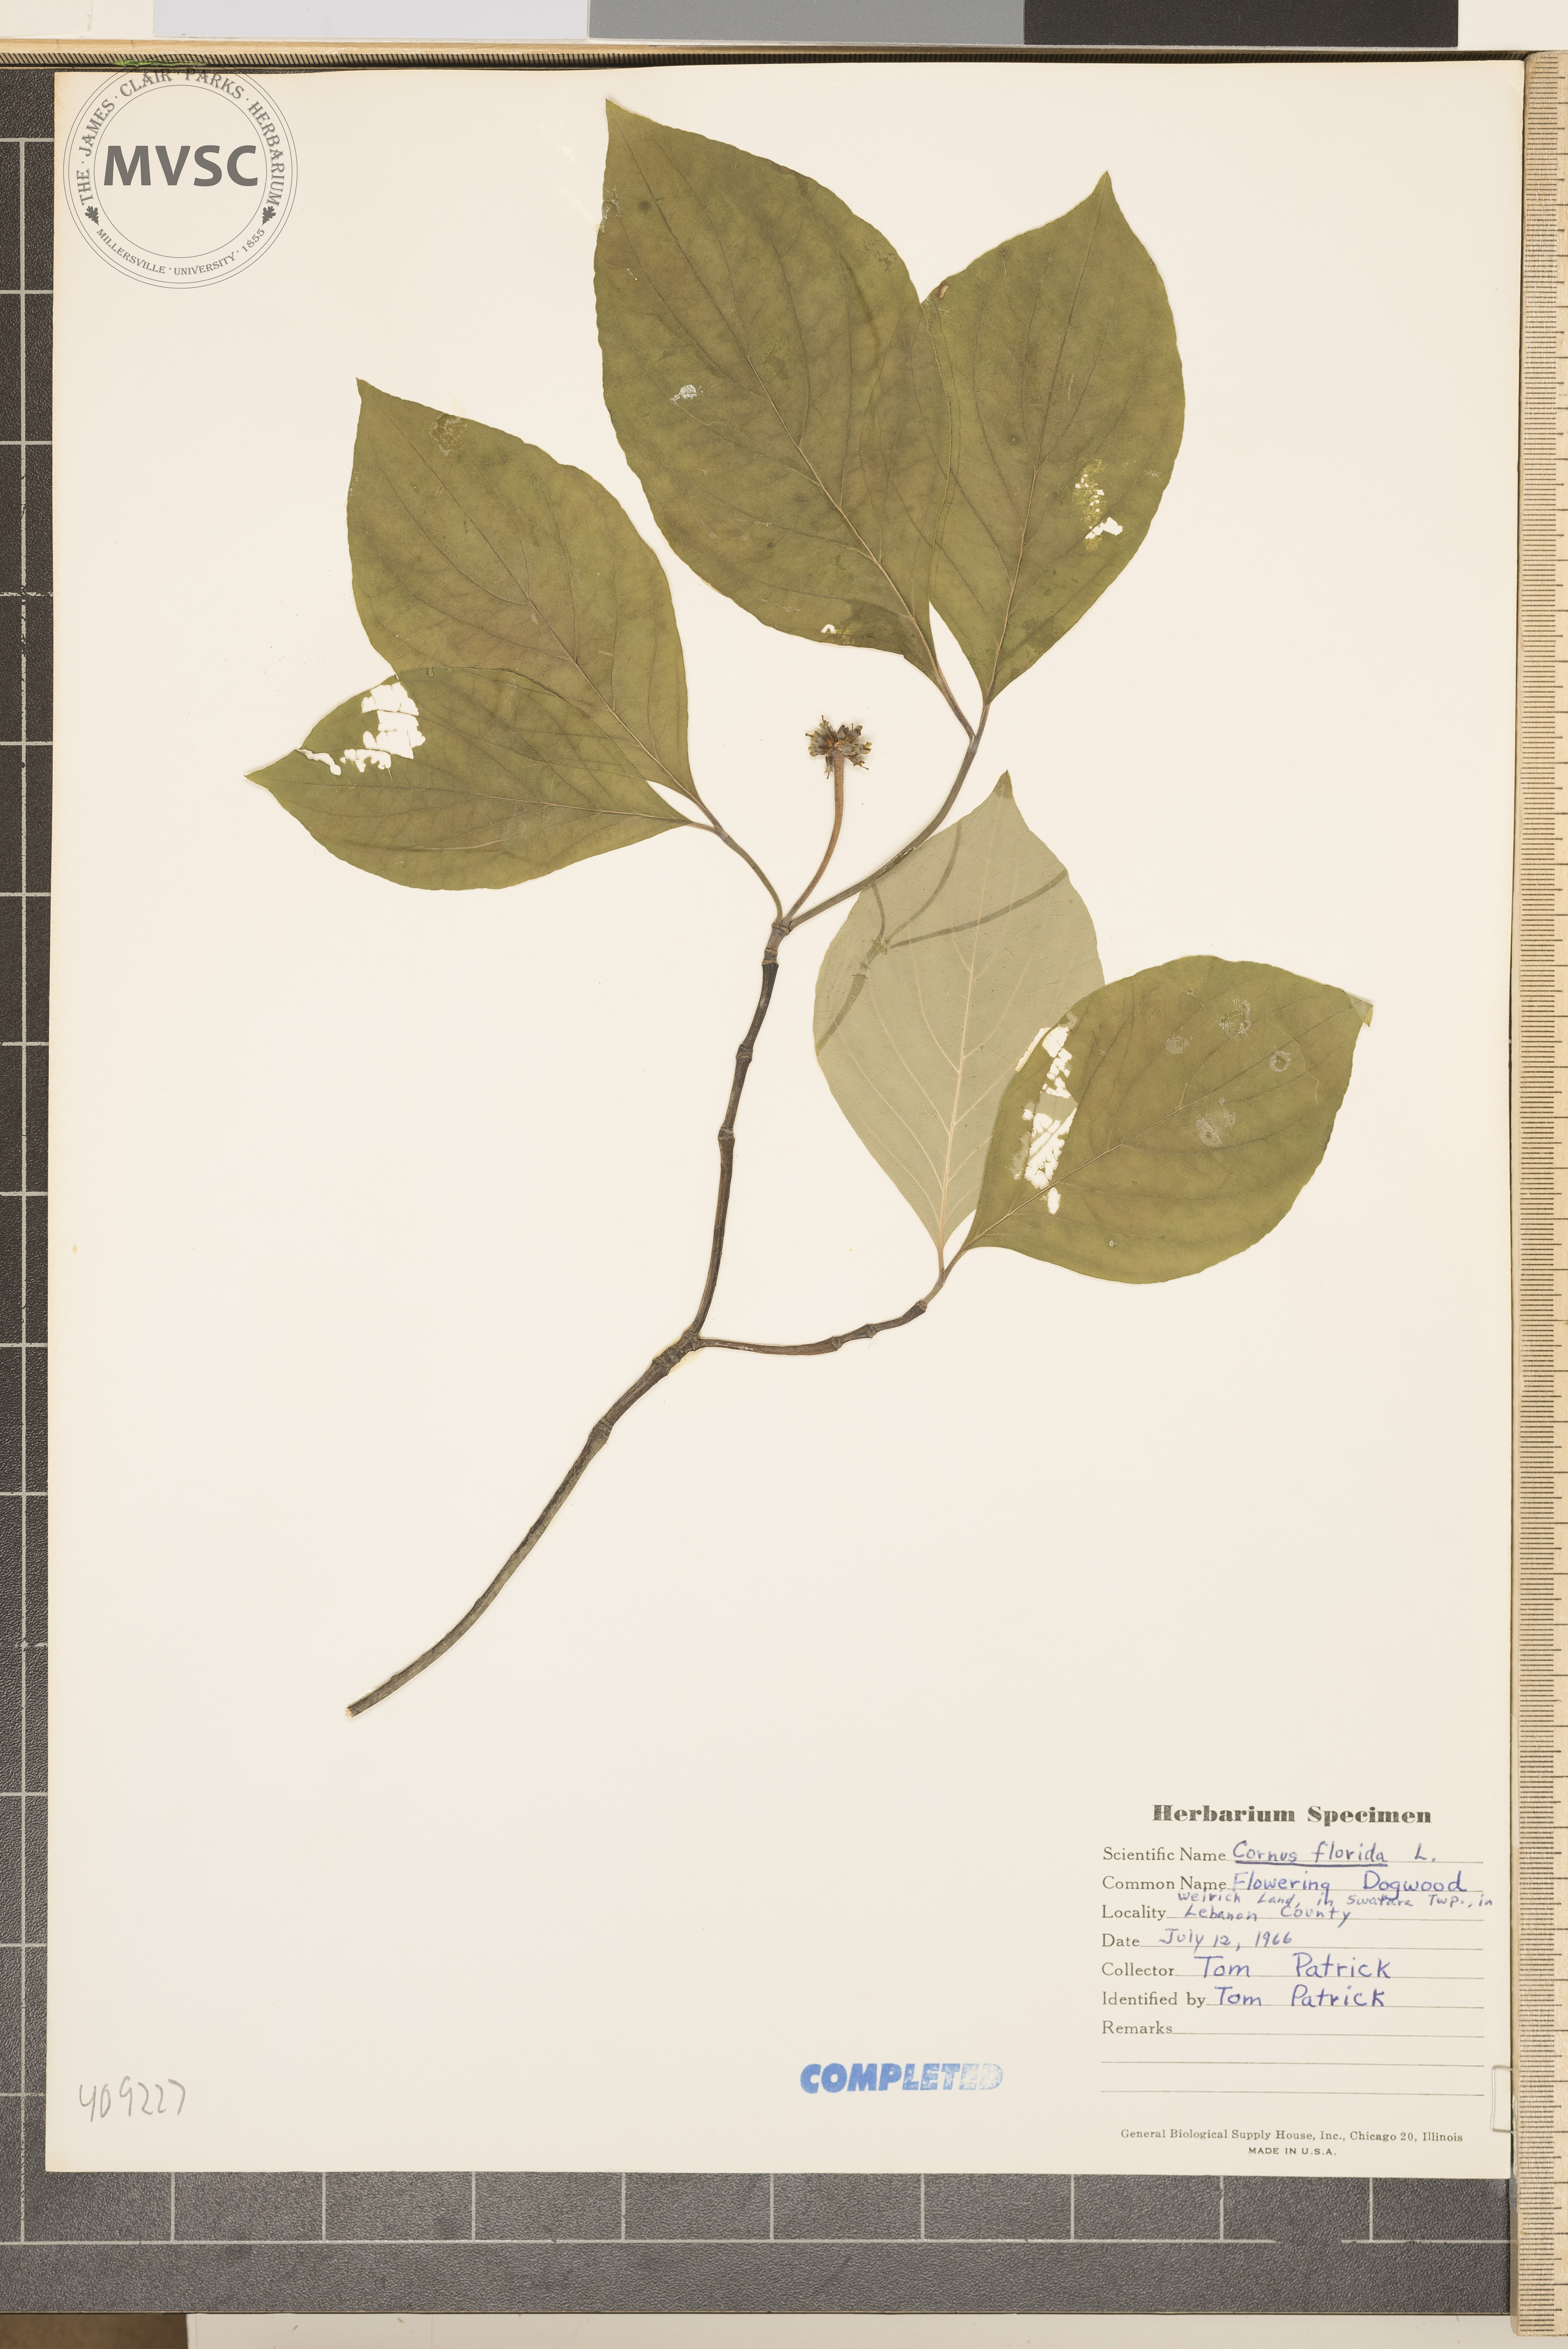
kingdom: Plantae
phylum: Tracheophyta
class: Magnoliopsida
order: Cornales
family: Cornaceae
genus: Cornus
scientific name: Cornus florida
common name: Flowering dogwood
